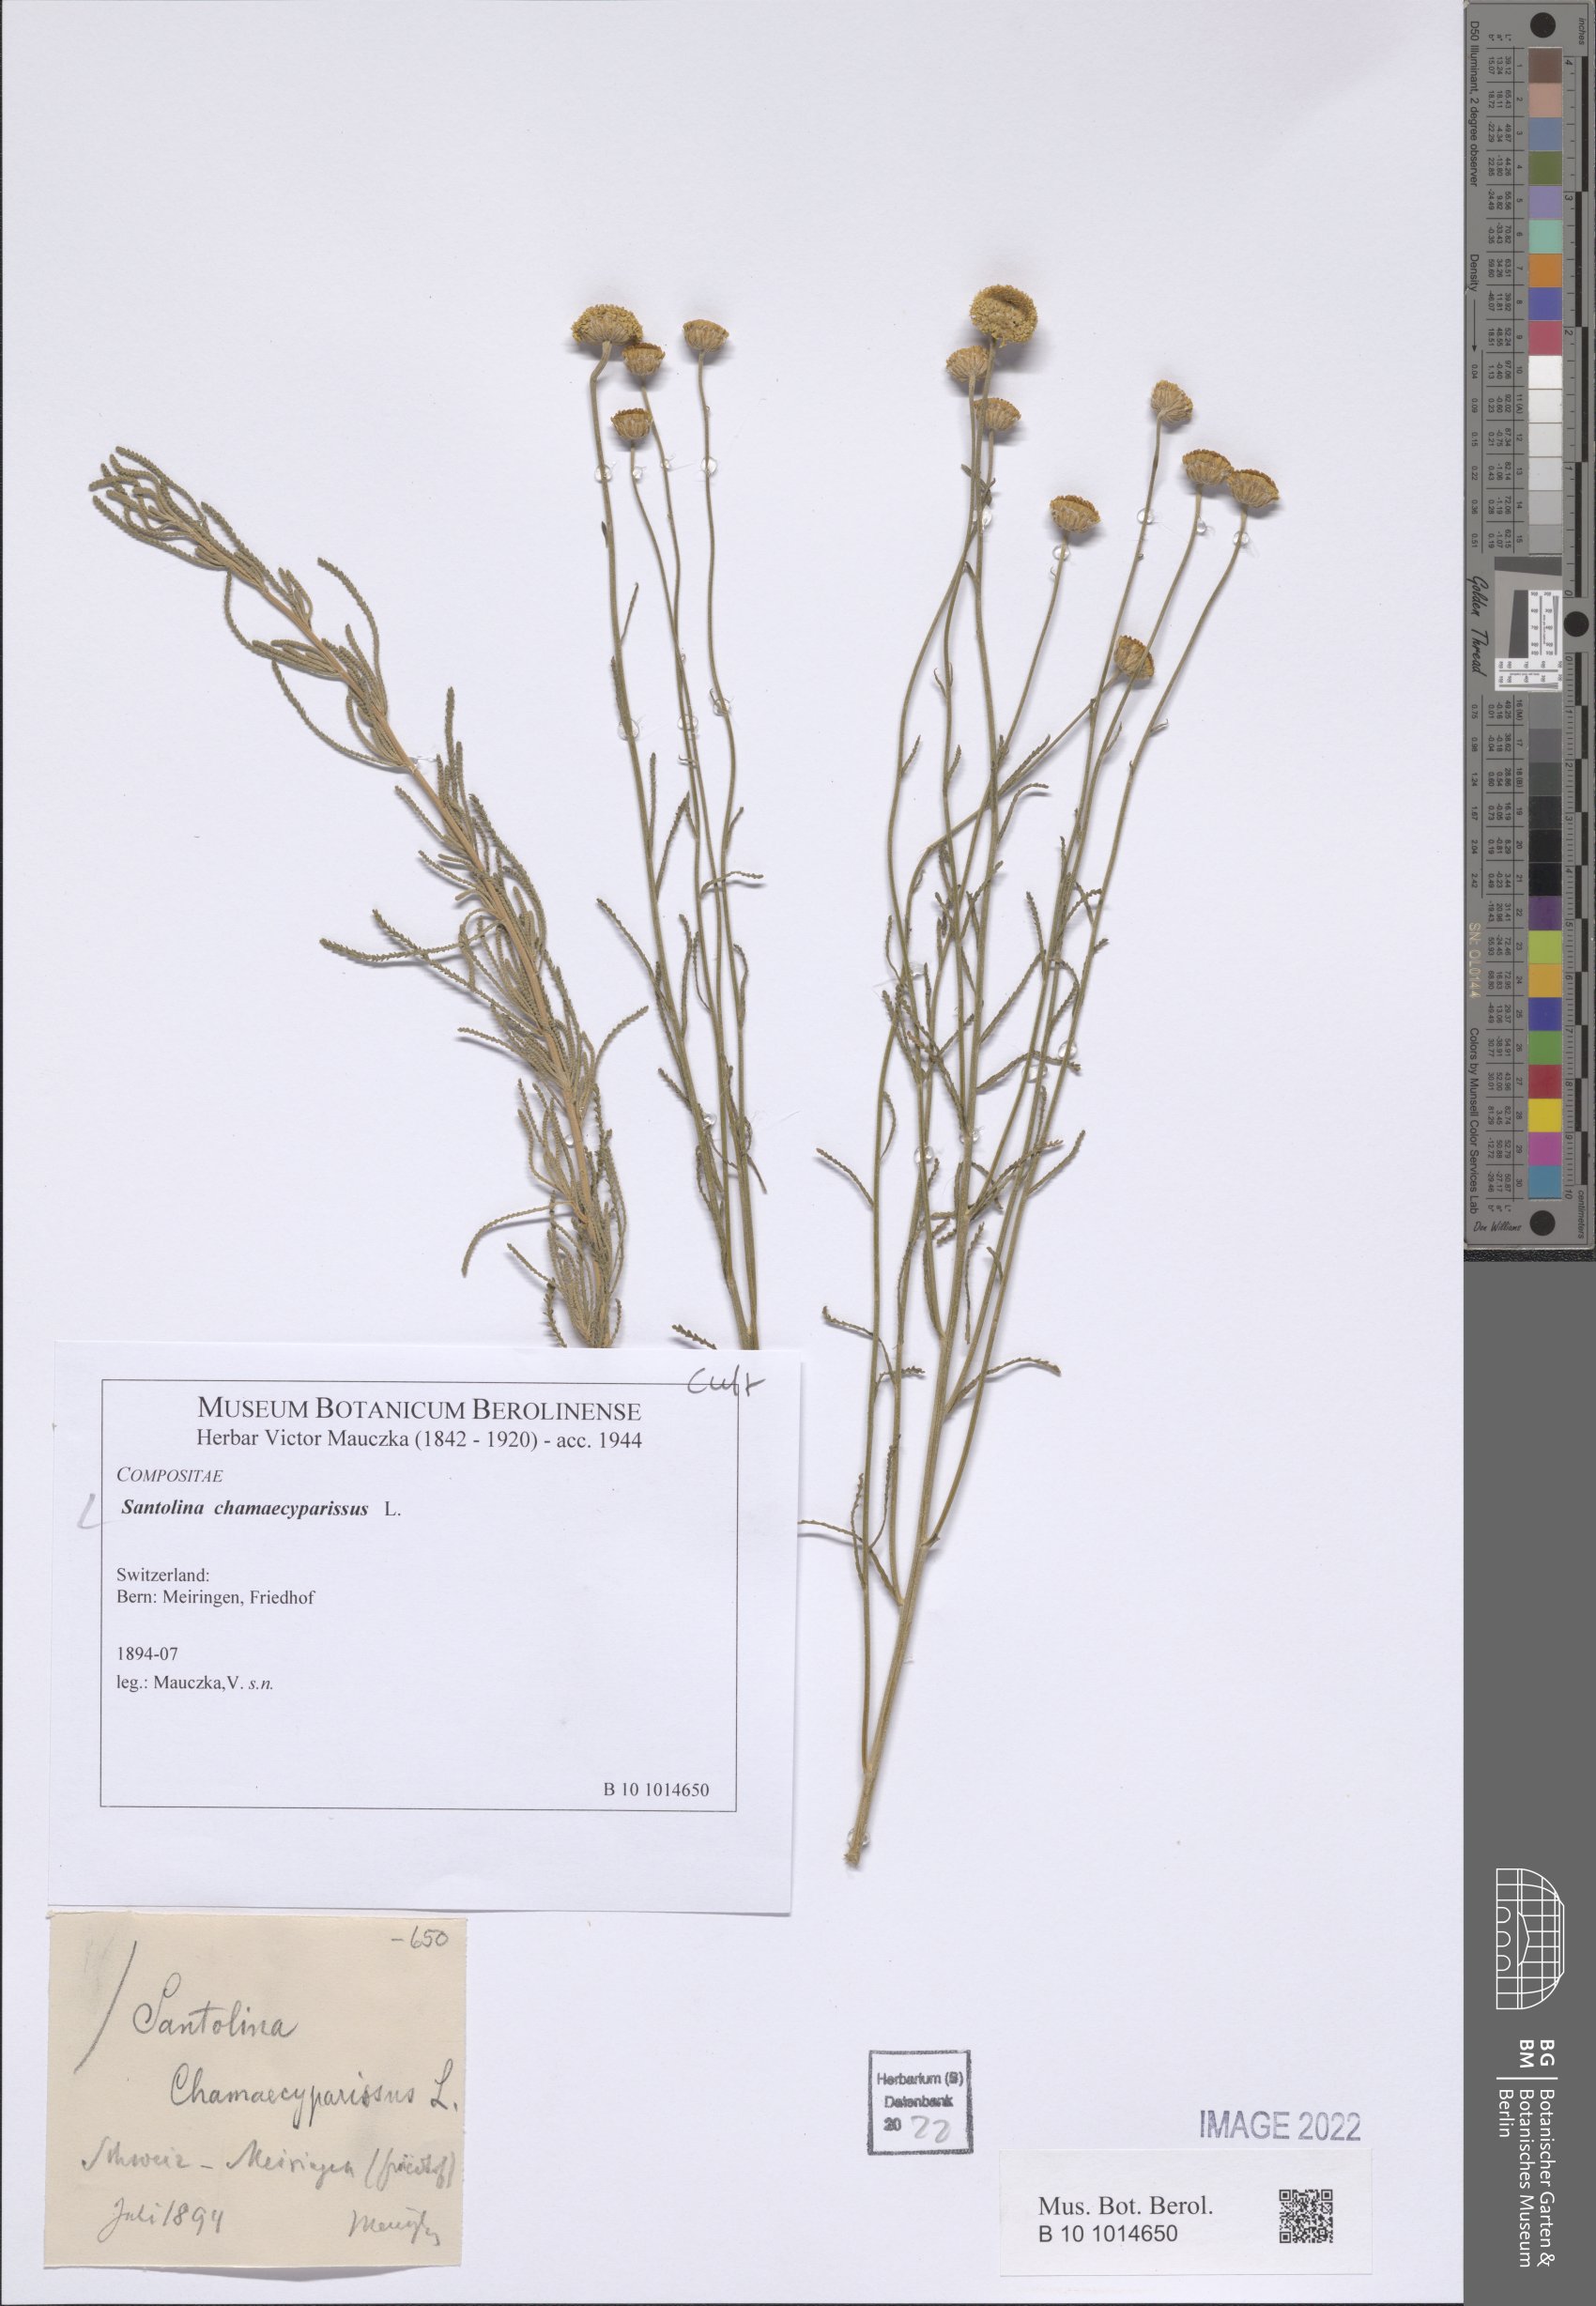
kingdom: Plantae
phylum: Tracheophyta
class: Magnoliopsida
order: Asterales
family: Asteraceae
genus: Santolina
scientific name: Santolina chamaecyparissus
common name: Lavender-cotton
